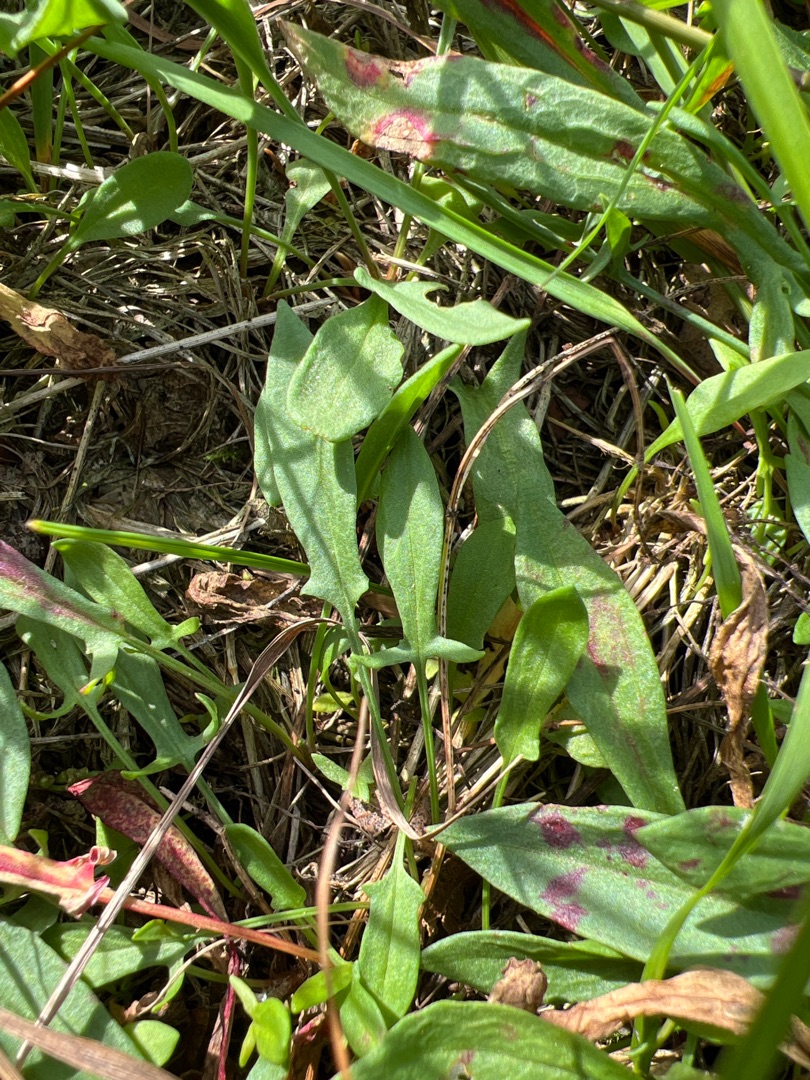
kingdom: Plantae
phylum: Tracheophyta
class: Magnoliopsida
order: Caryophyllales
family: Polygonaceae
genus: Rumex
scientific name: Rumex acetosella
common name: Rødknæ
